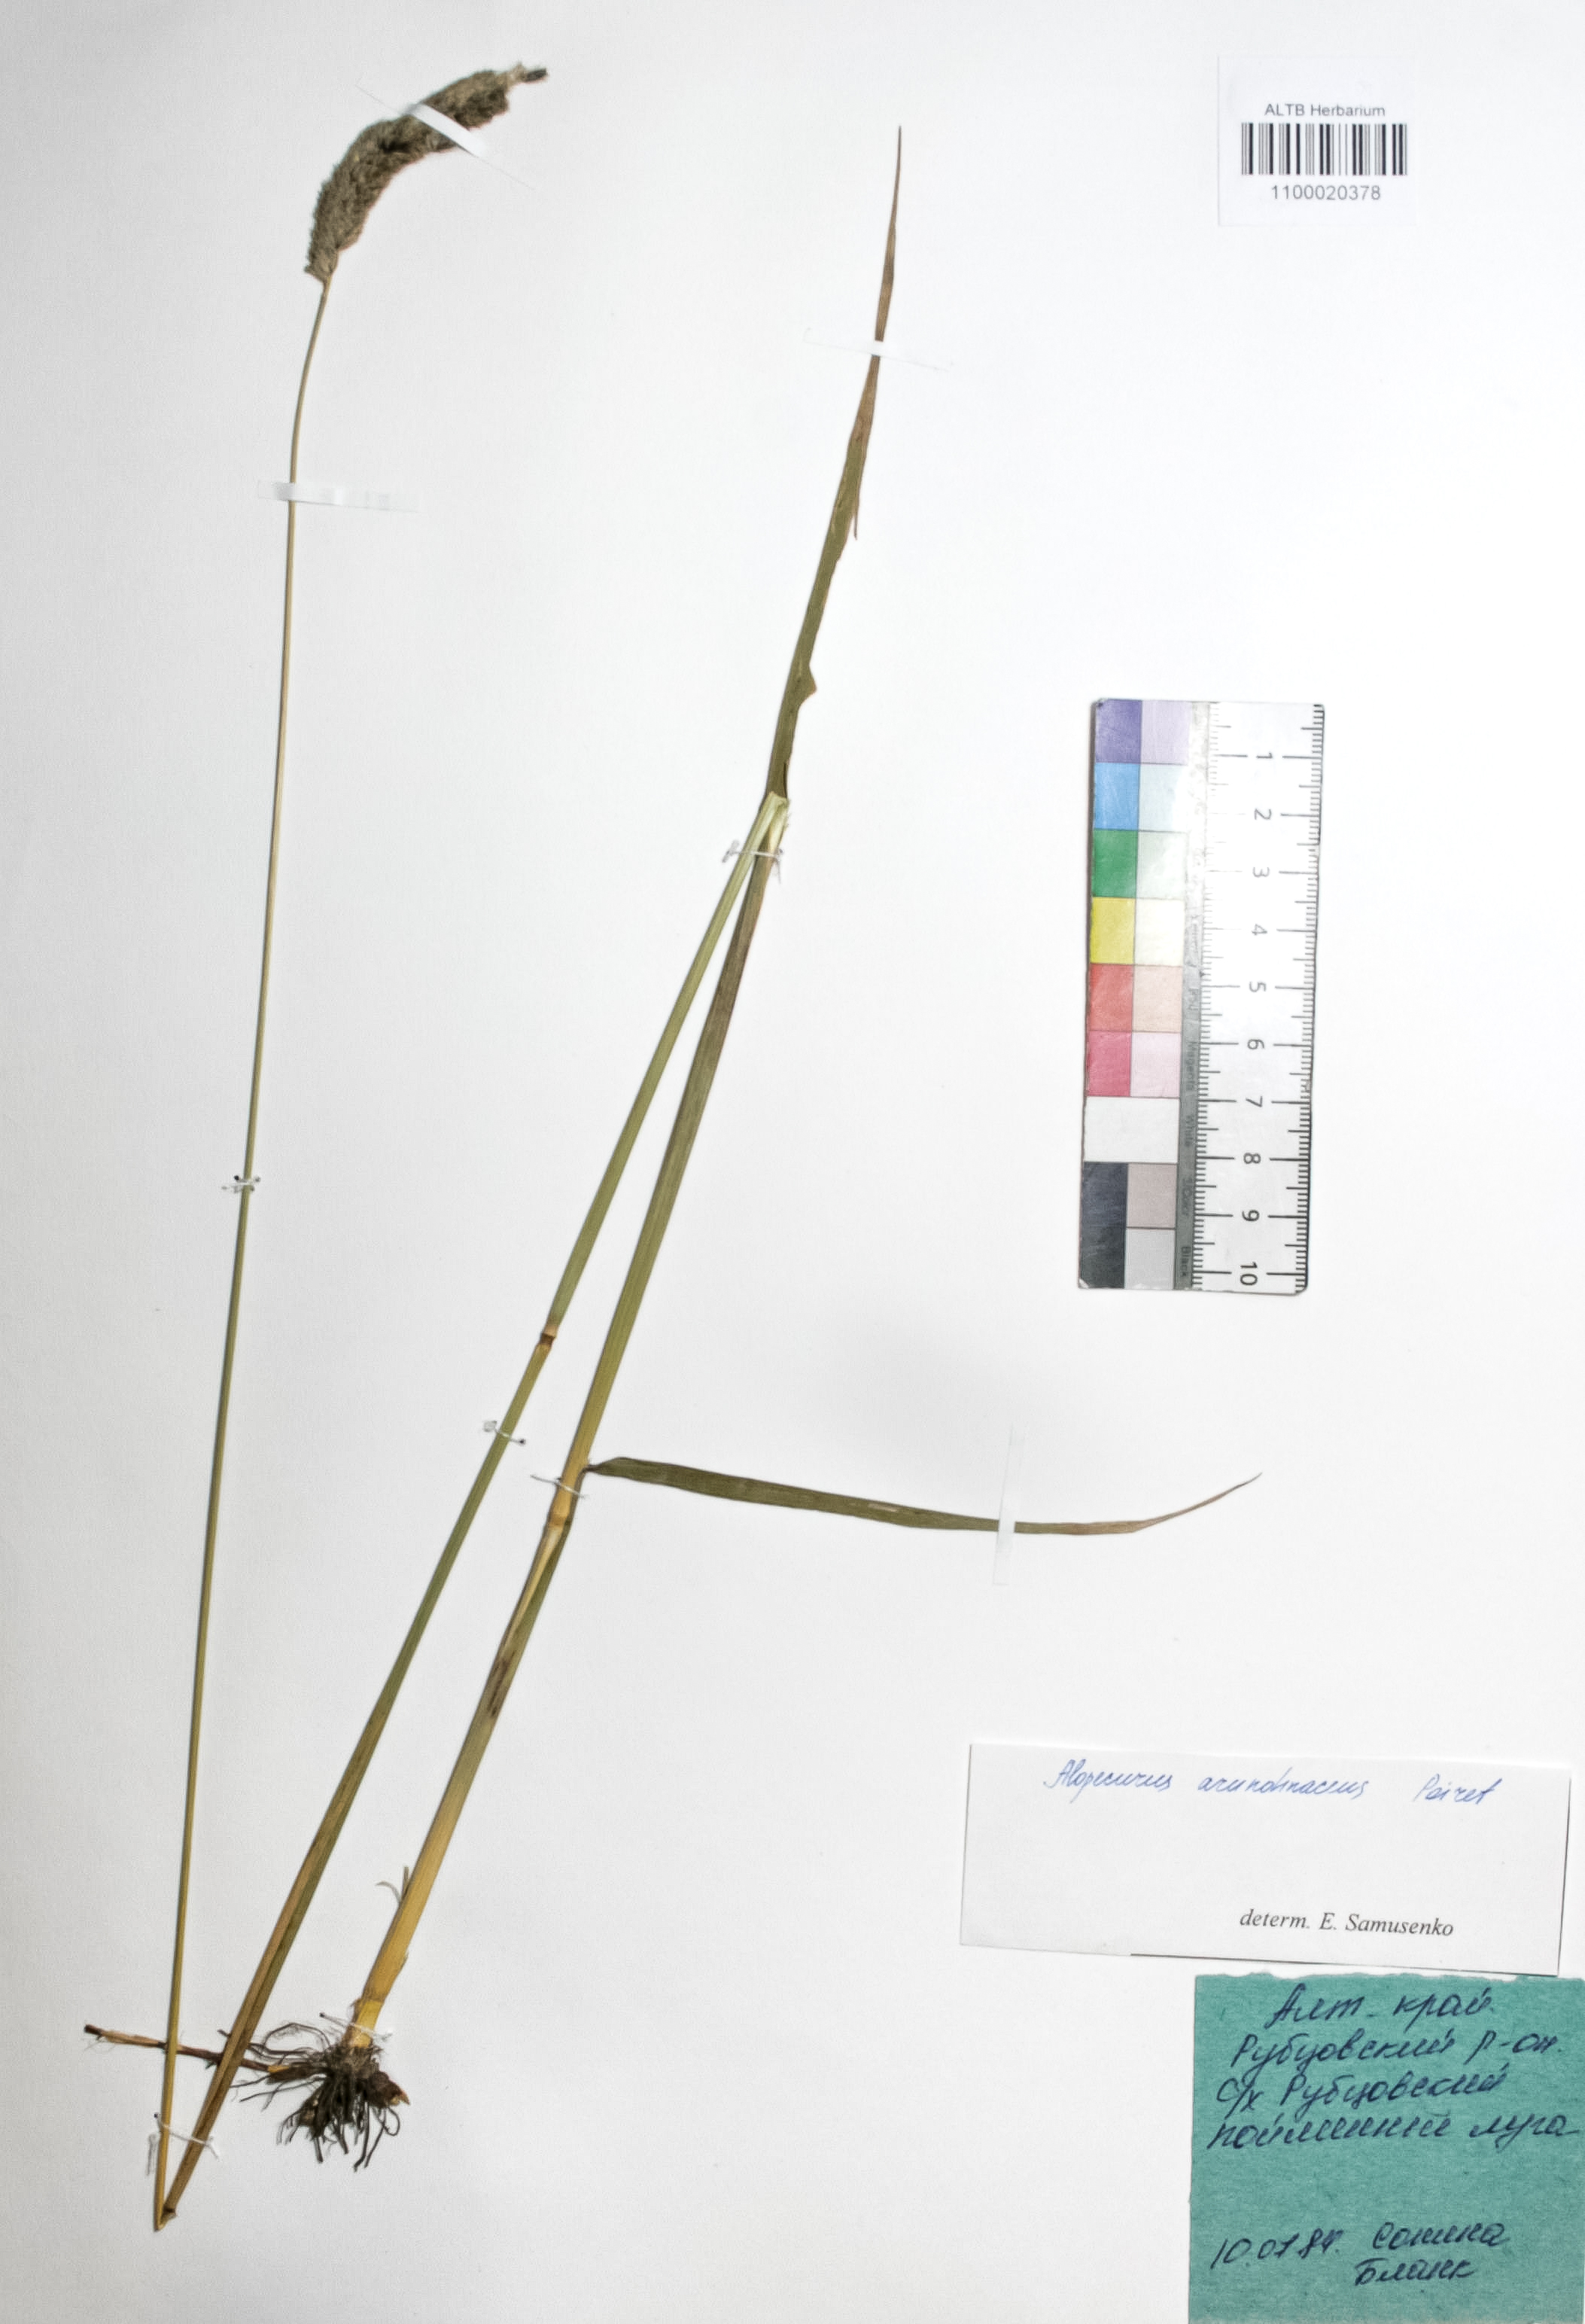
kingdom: Plantae
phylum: Tracheophyta
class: Liliopsida
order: Poales
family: Poaceae
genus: Alopecurus
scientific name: Alopecurus arundinaceus
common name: Creeping meadow foxtail
